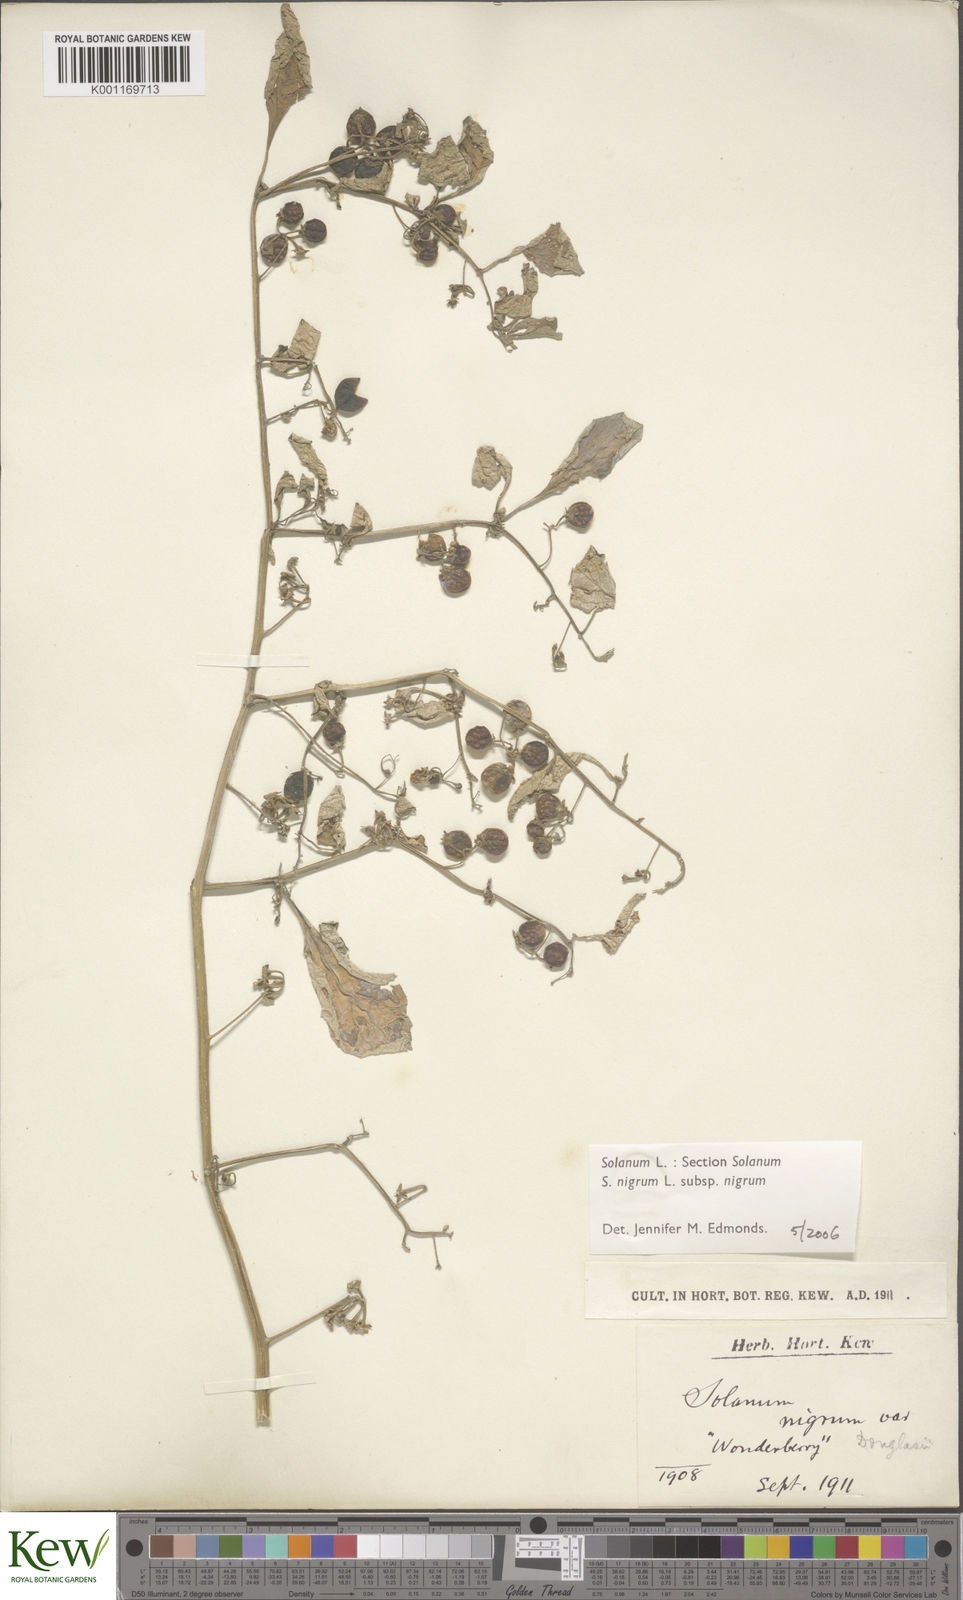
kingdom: Plantae
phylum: Tracheophyta
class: Magnoliopsida
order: Solanales
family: Solanaceae
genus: Solanum
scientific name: Solanum nigrum
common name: Black nightshade
